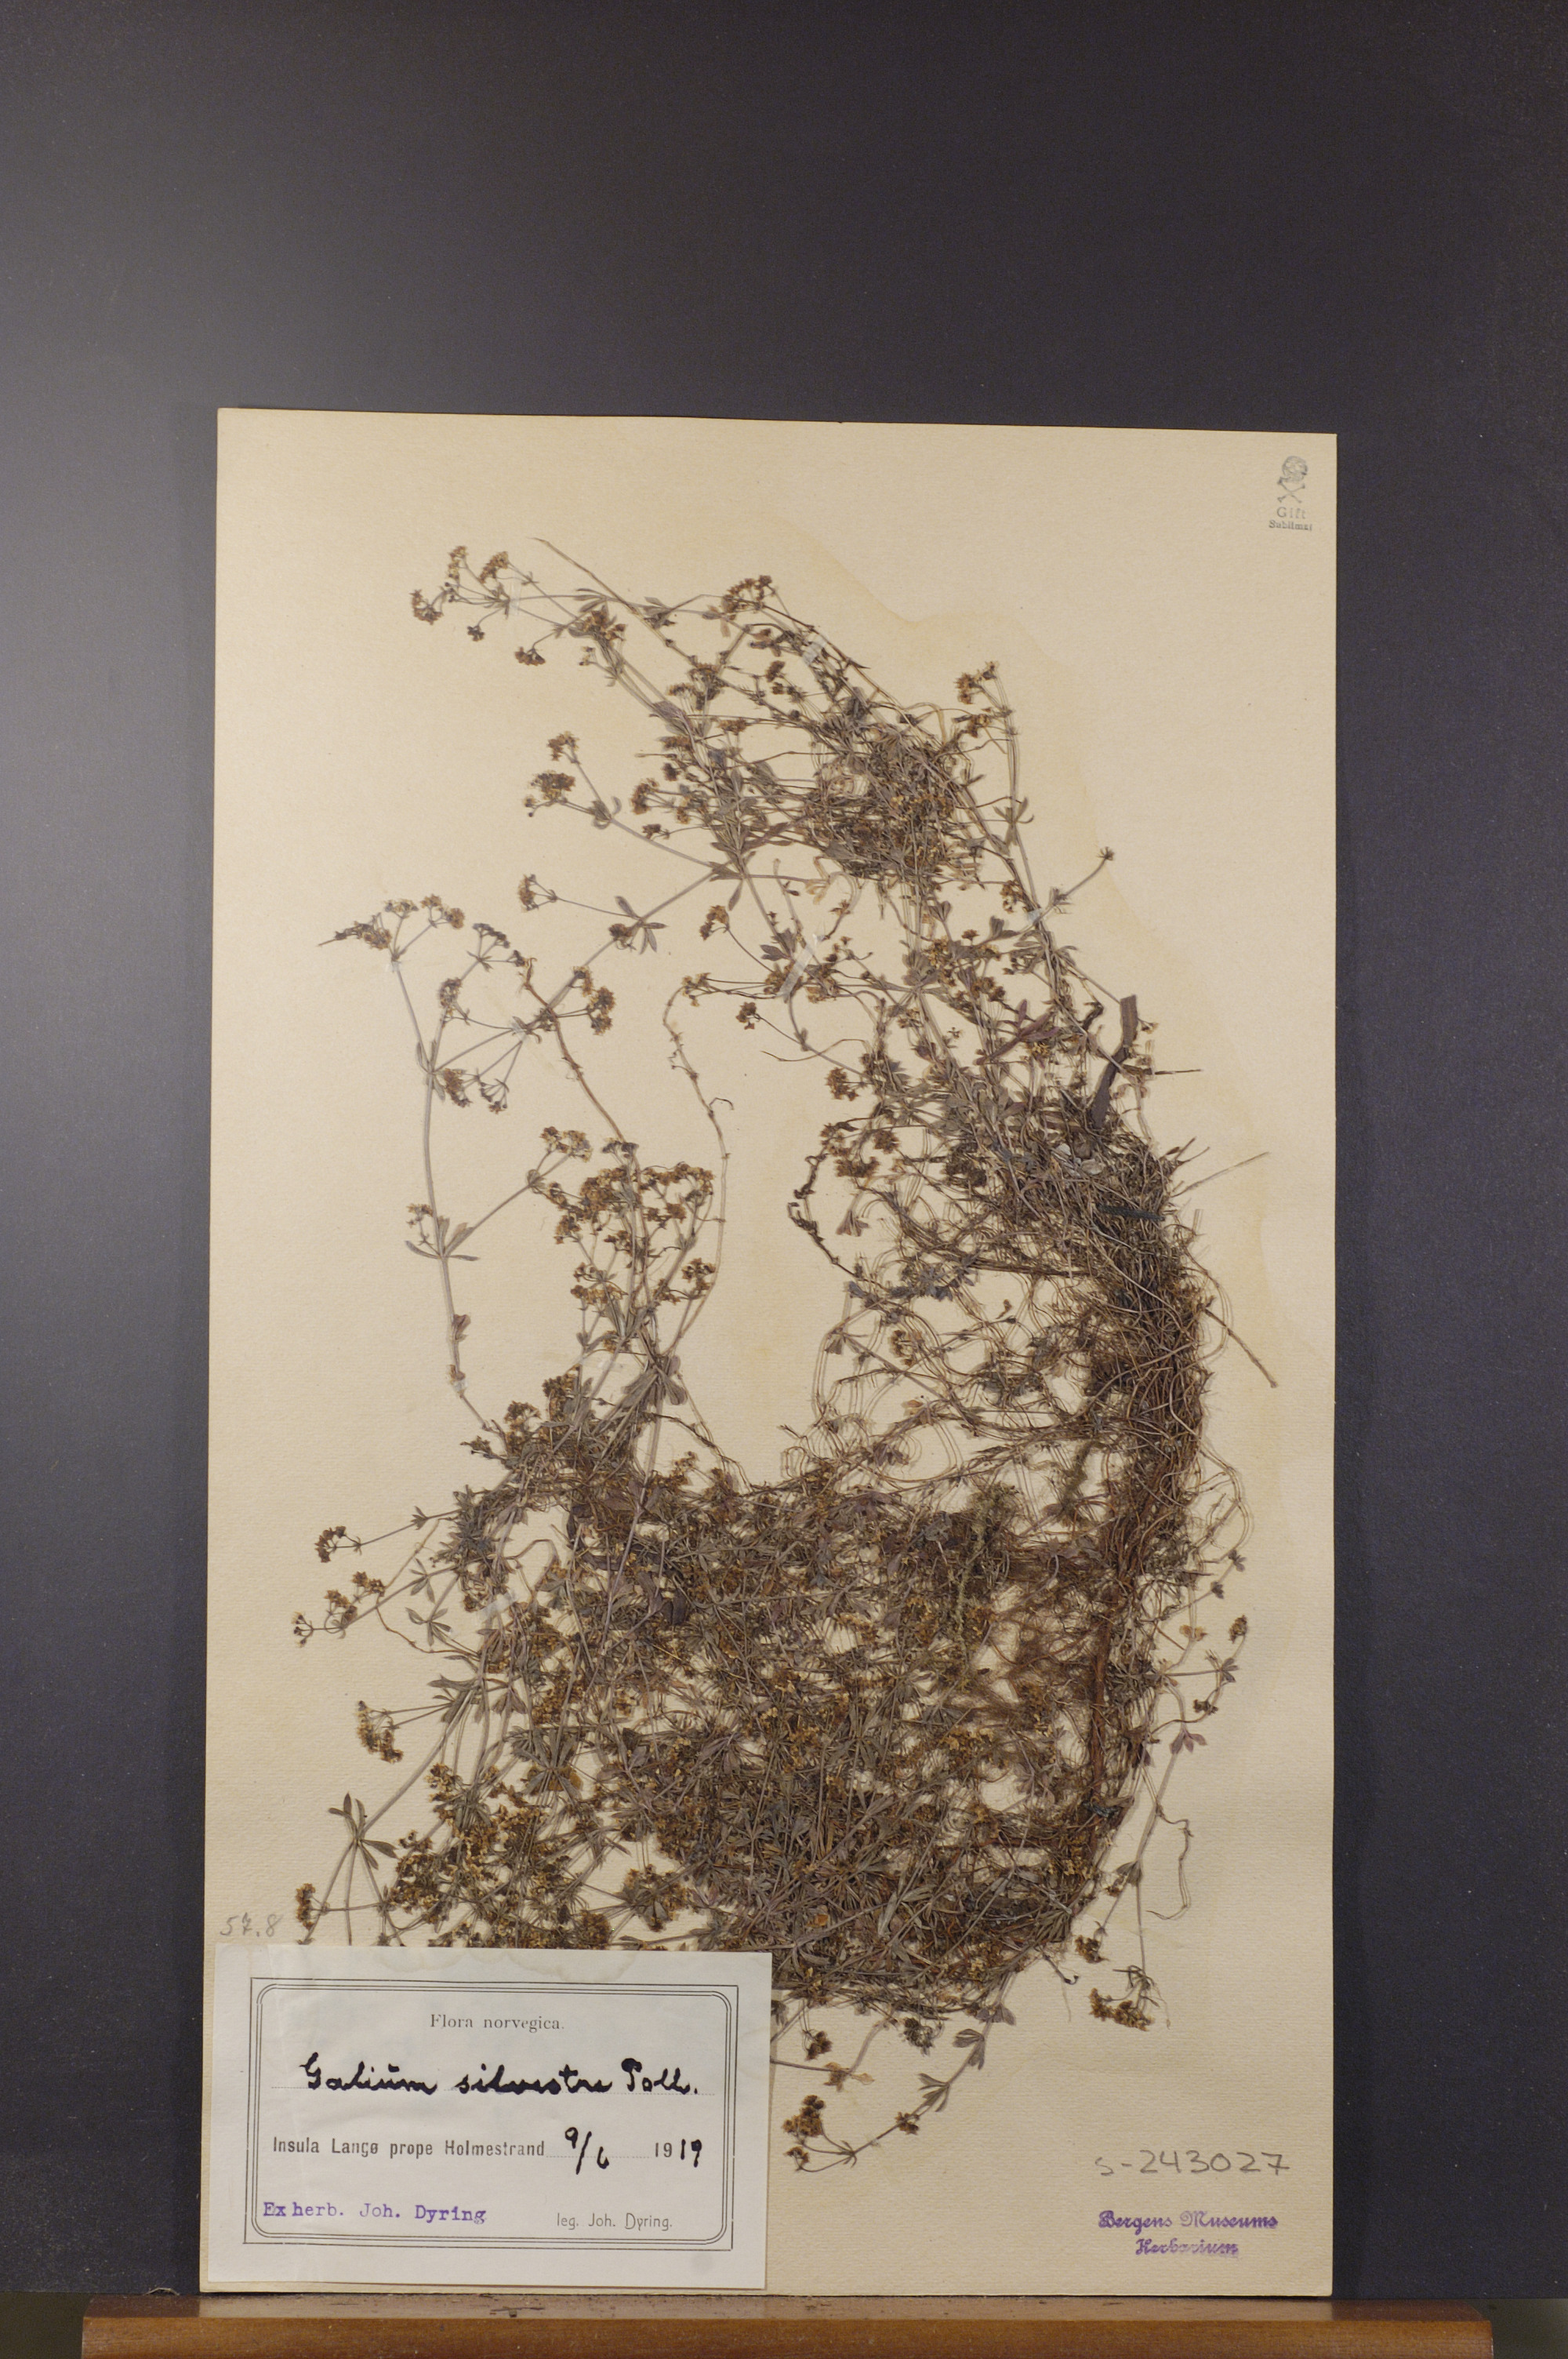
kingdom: Plantae
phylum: Tracheophyta
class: Magnoliopsida
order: Gentianales
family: Rubiaceae
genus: Galium
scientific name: Galium pumilum
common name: Slender bedstraw
